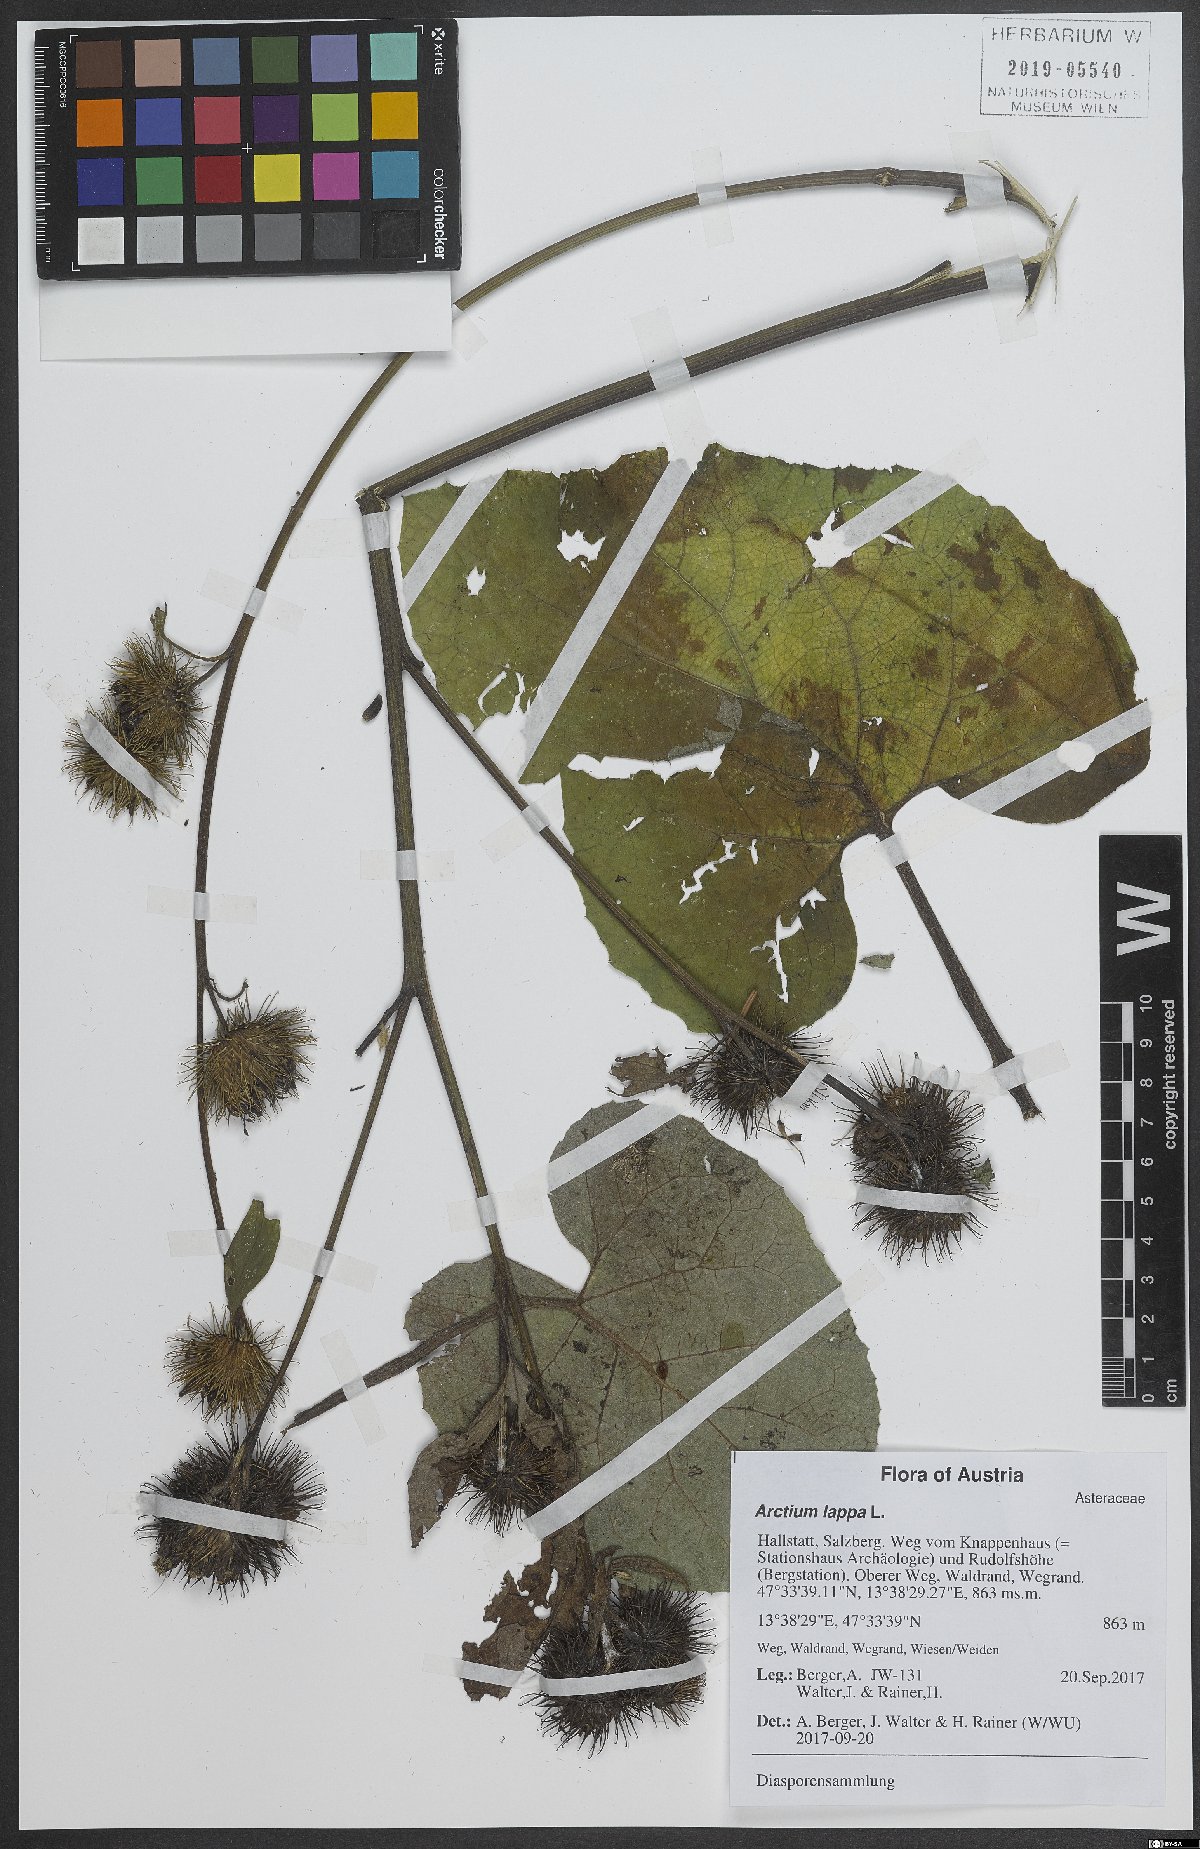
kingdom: Plantae
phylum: Tracheophyta
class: Magnoliopsida
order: Asterales
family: Asteraceae
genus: Arctium
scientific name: Arctium lappa
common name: Greater burdock
